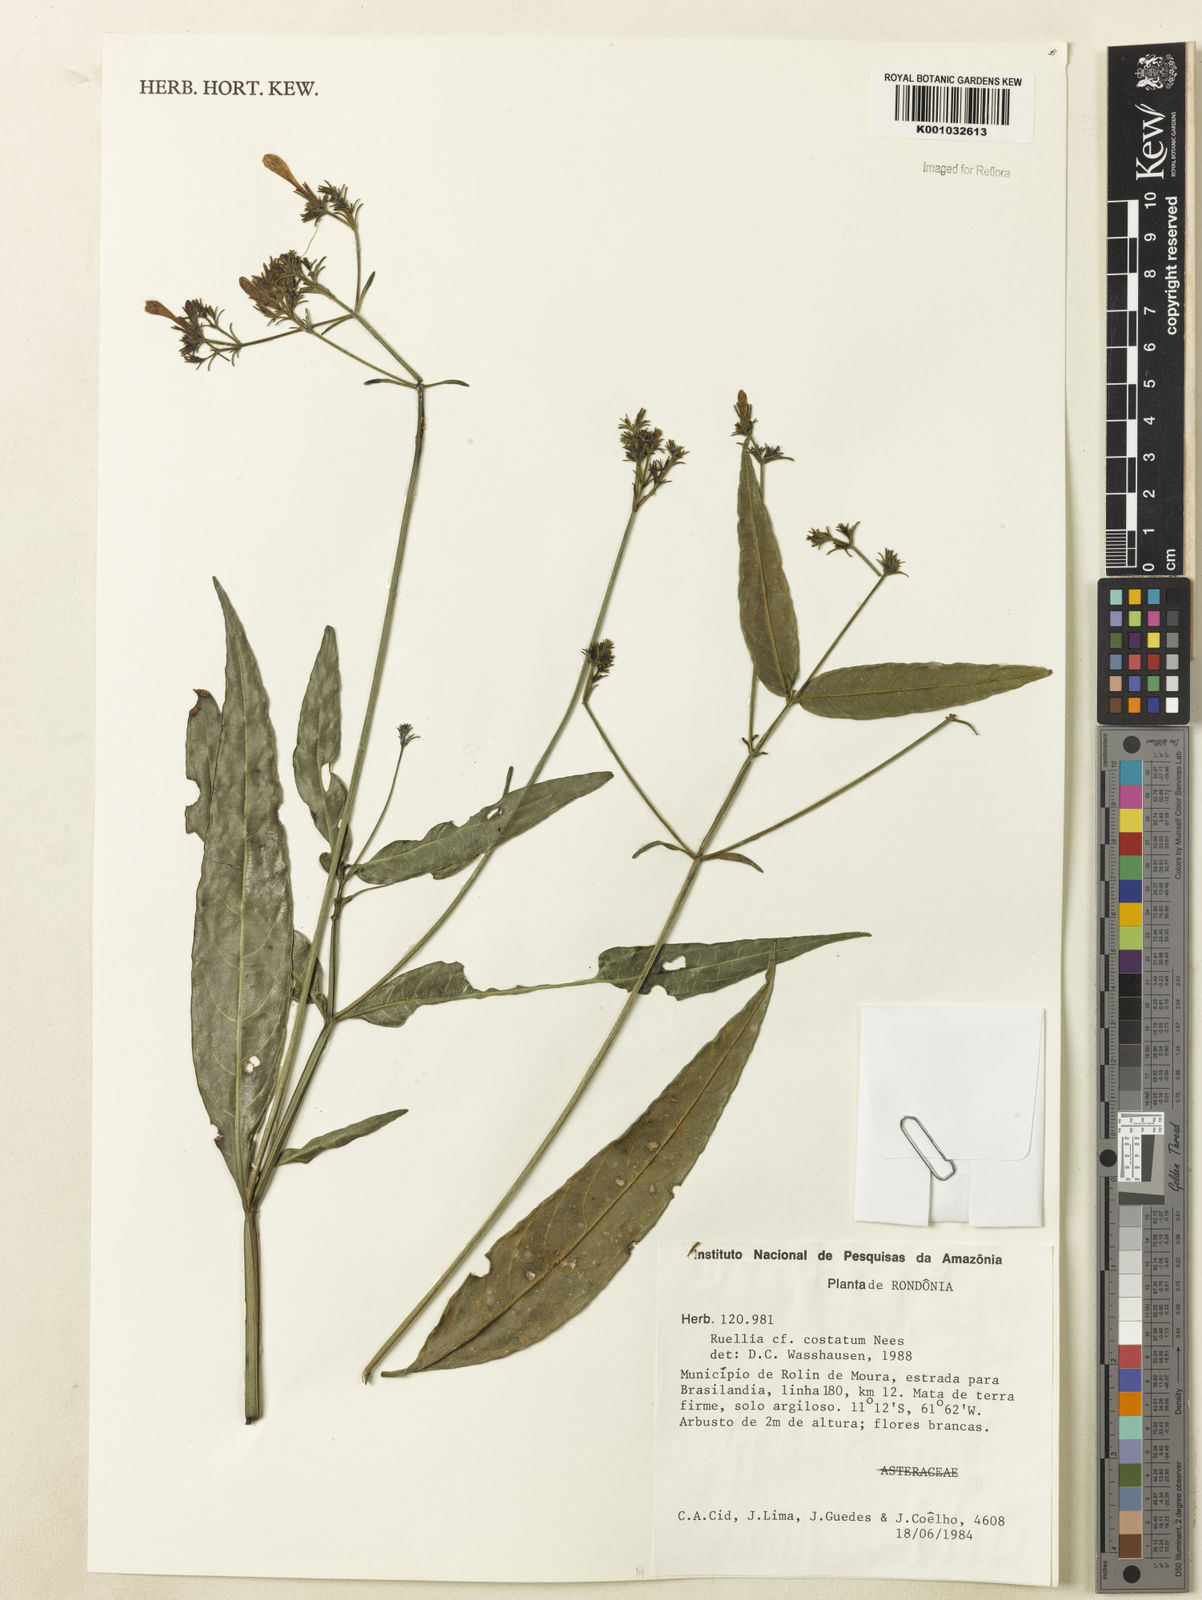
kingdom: Plantae
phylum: Tracheophyta
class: Magnoliopsida
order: Lamiales
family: Acanthaceae
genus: Ruellia
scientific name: Ruellia nitida
